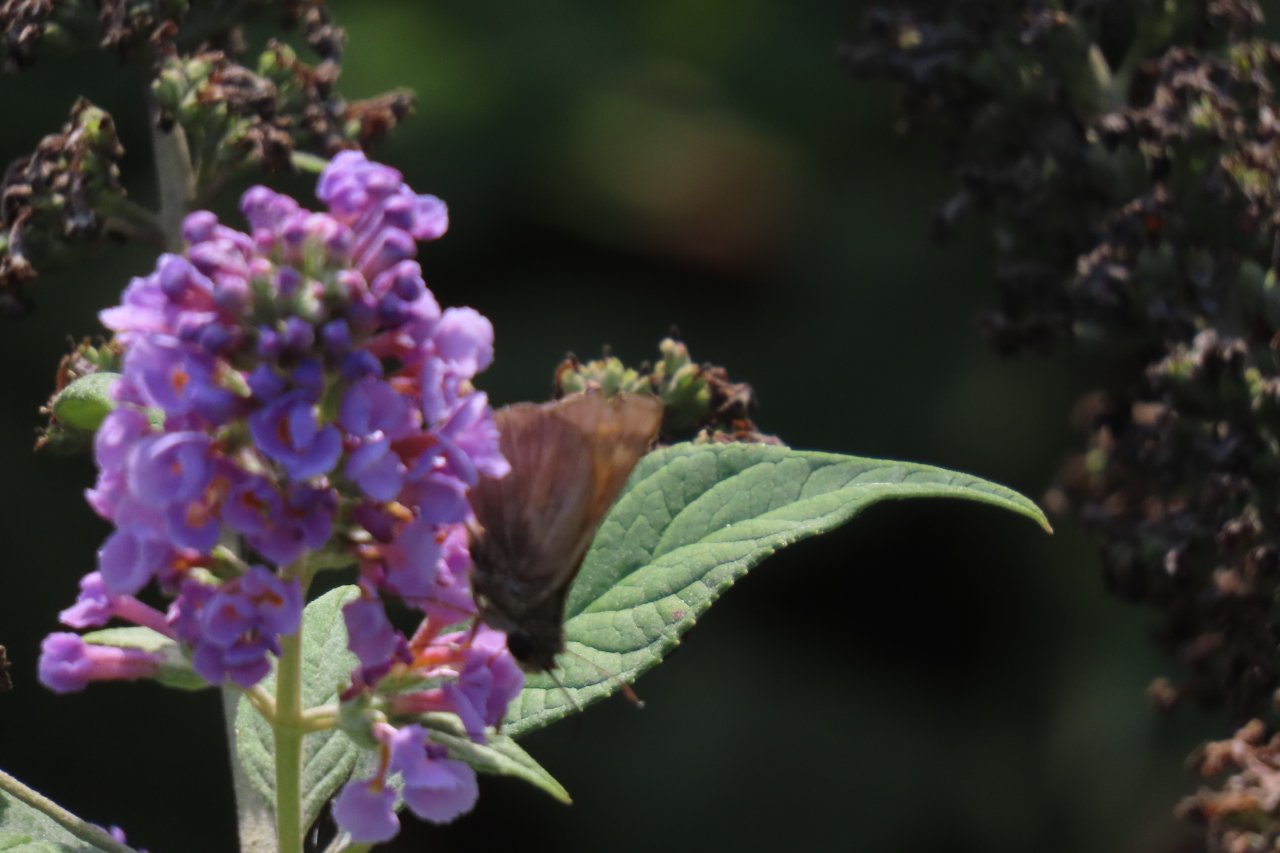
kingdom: Animalia
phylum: Arthropoda
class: Insecta
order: Lepidoptera
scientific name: Lepidoptera
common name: Butterflies
